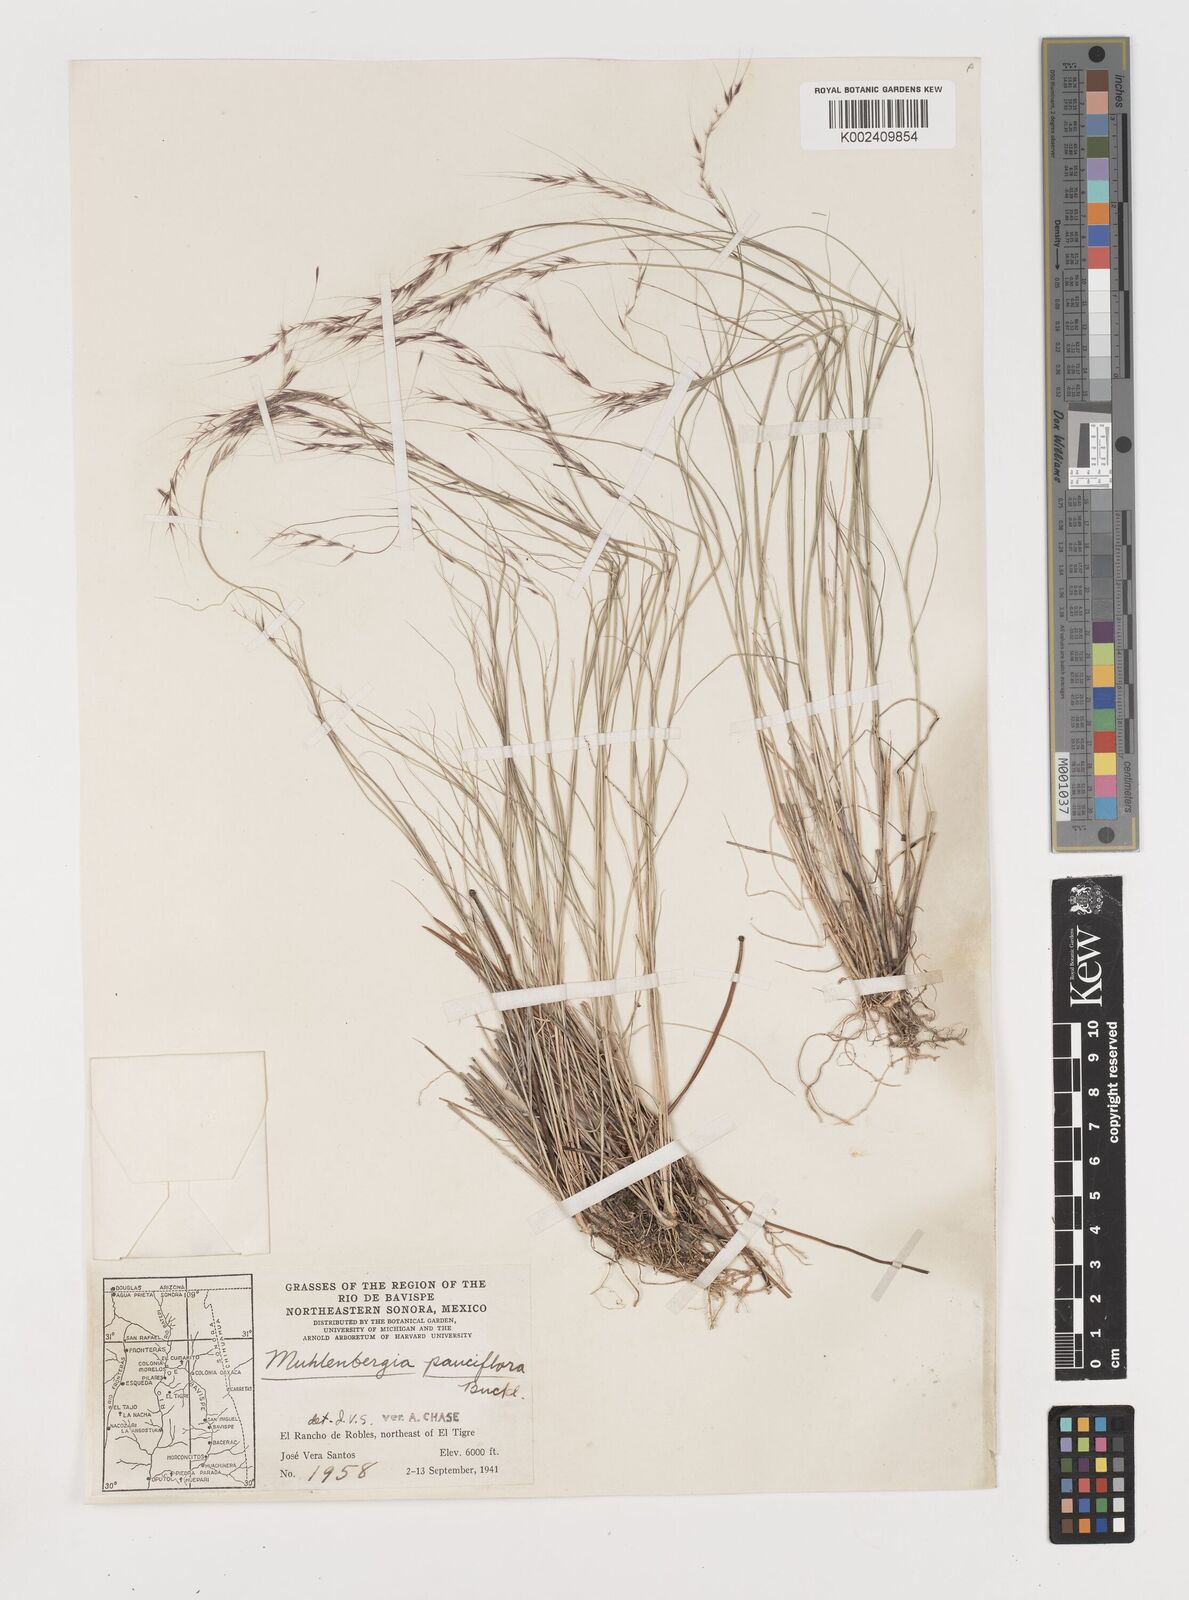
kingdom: Plantae
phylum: Tracheophyta
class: Liliopsida
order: Poales
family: Poaceae
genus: Muhlenbergia
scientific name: Muhlenbergia pauciflora
